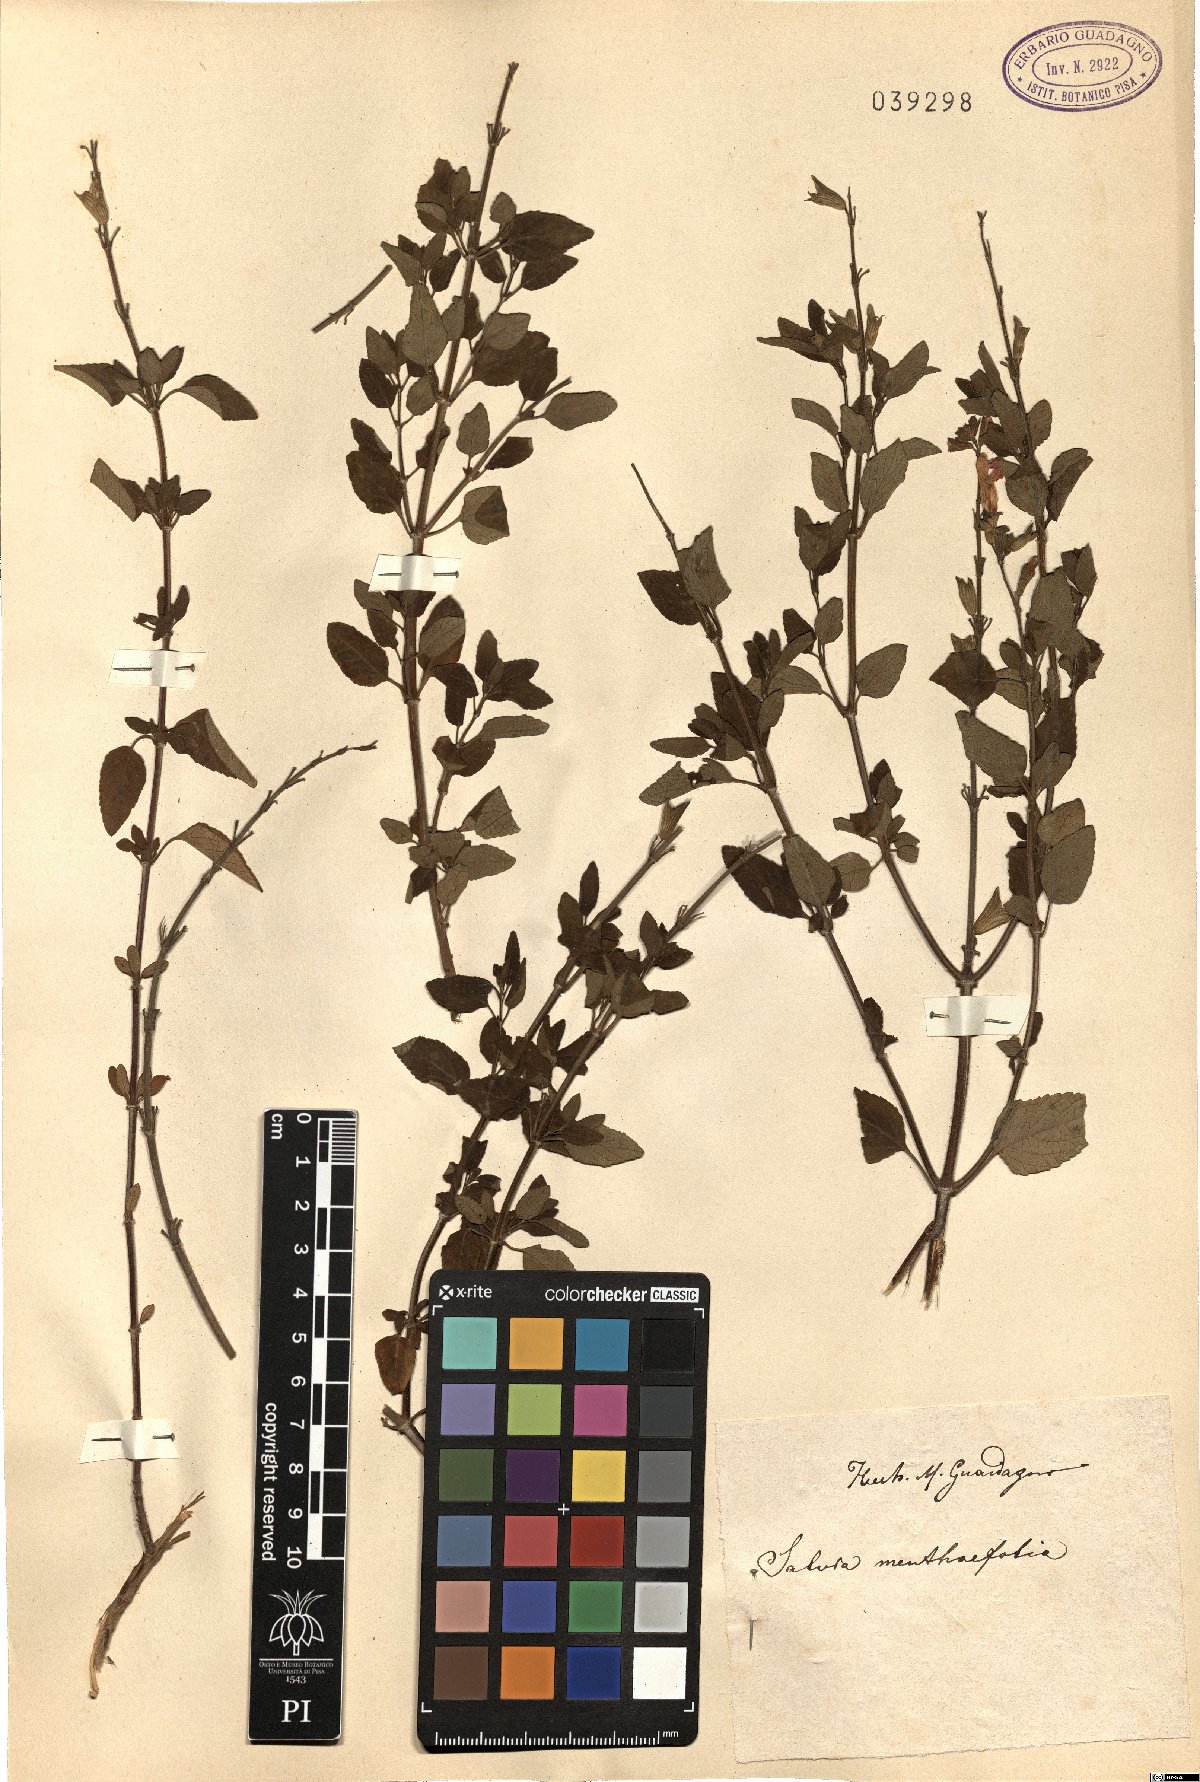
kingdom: Plantae
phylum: Tracheophyta
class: Magnoliopsida
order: Lamiales
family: Lamiaceae
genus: Salvia
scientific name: Salvia chamaedryoides
